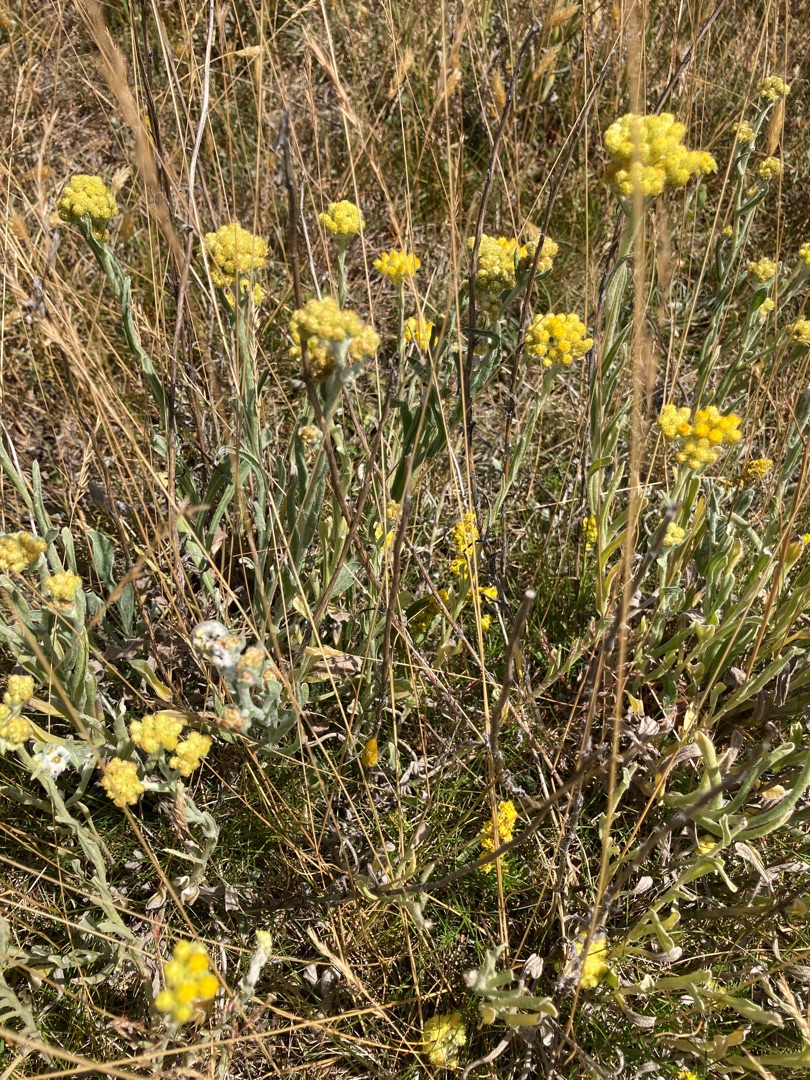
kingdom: Plantae
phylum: Tracheophyta
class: Magnoliopsida
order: Asterales
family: Asteraceae
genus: Helichrysum
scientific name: Helichrysum arenarium
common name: Gul evighedsblomst
